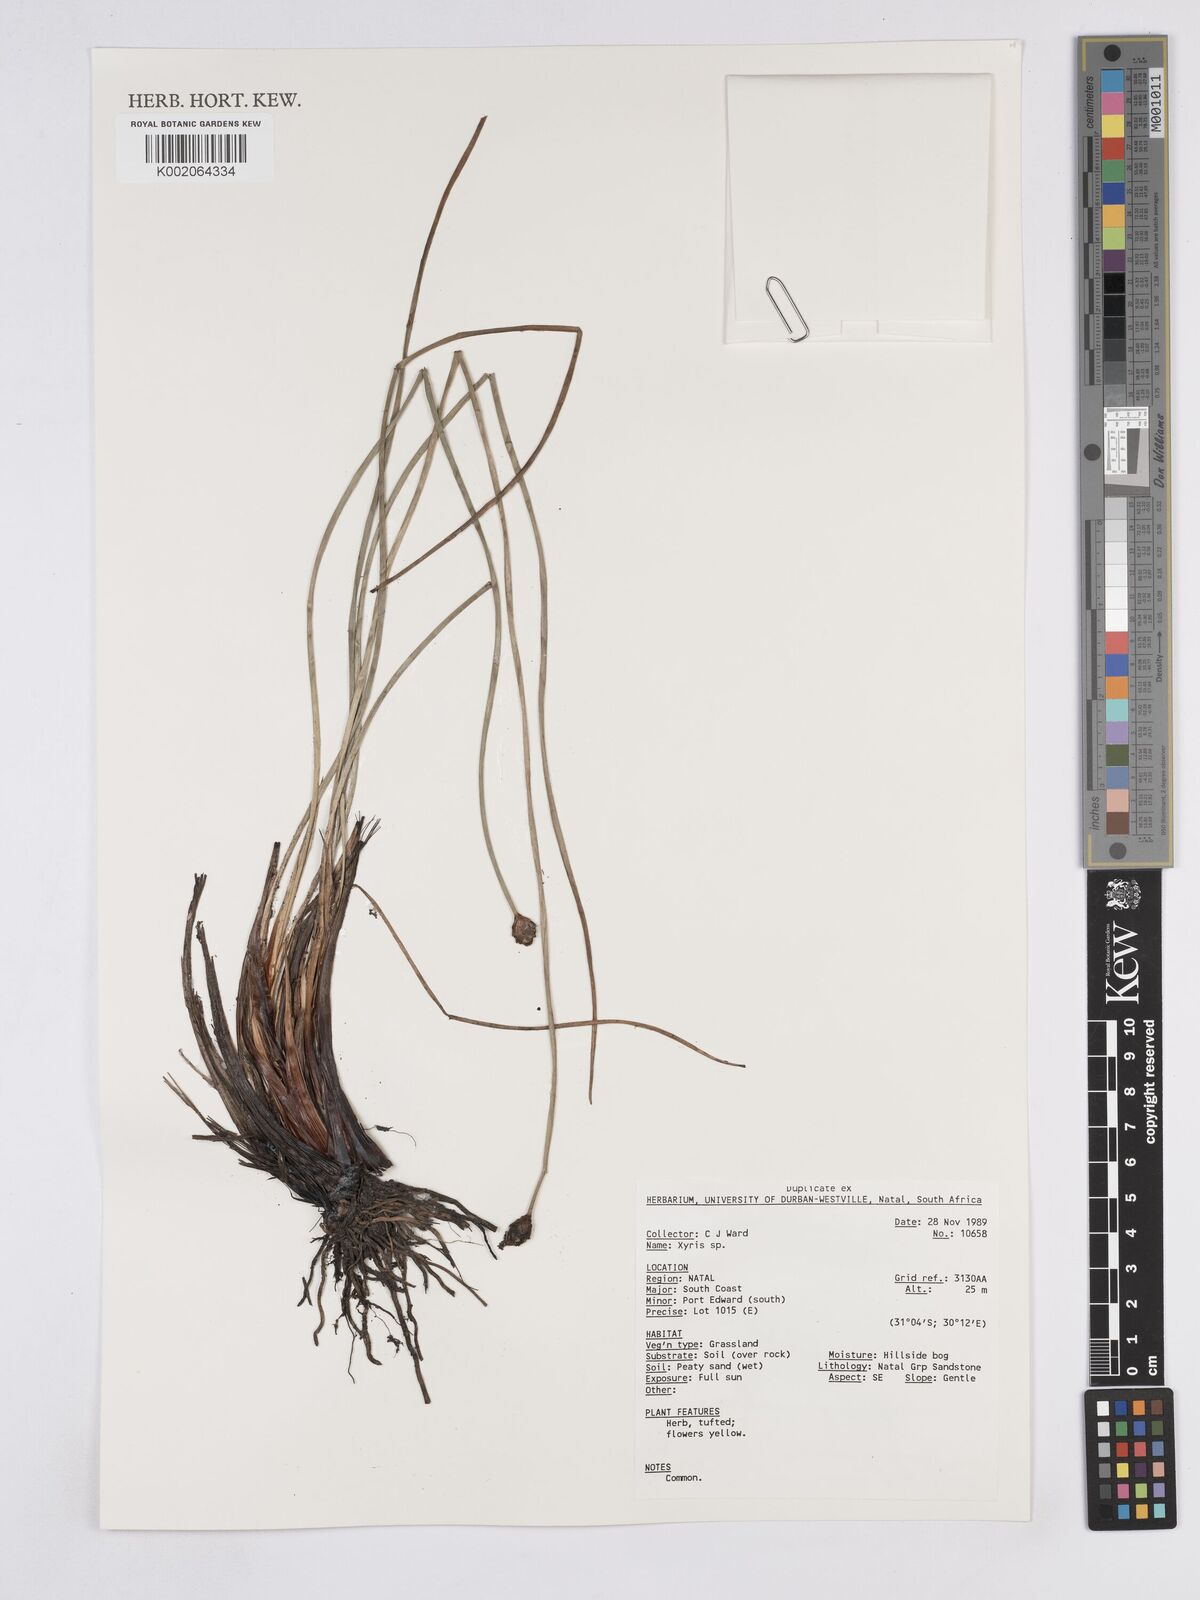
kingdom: Plantae
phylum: Tracheophyta
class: Liliopsida
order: Poales
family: Xyridaceae
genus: Xyris
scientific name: Xyris
